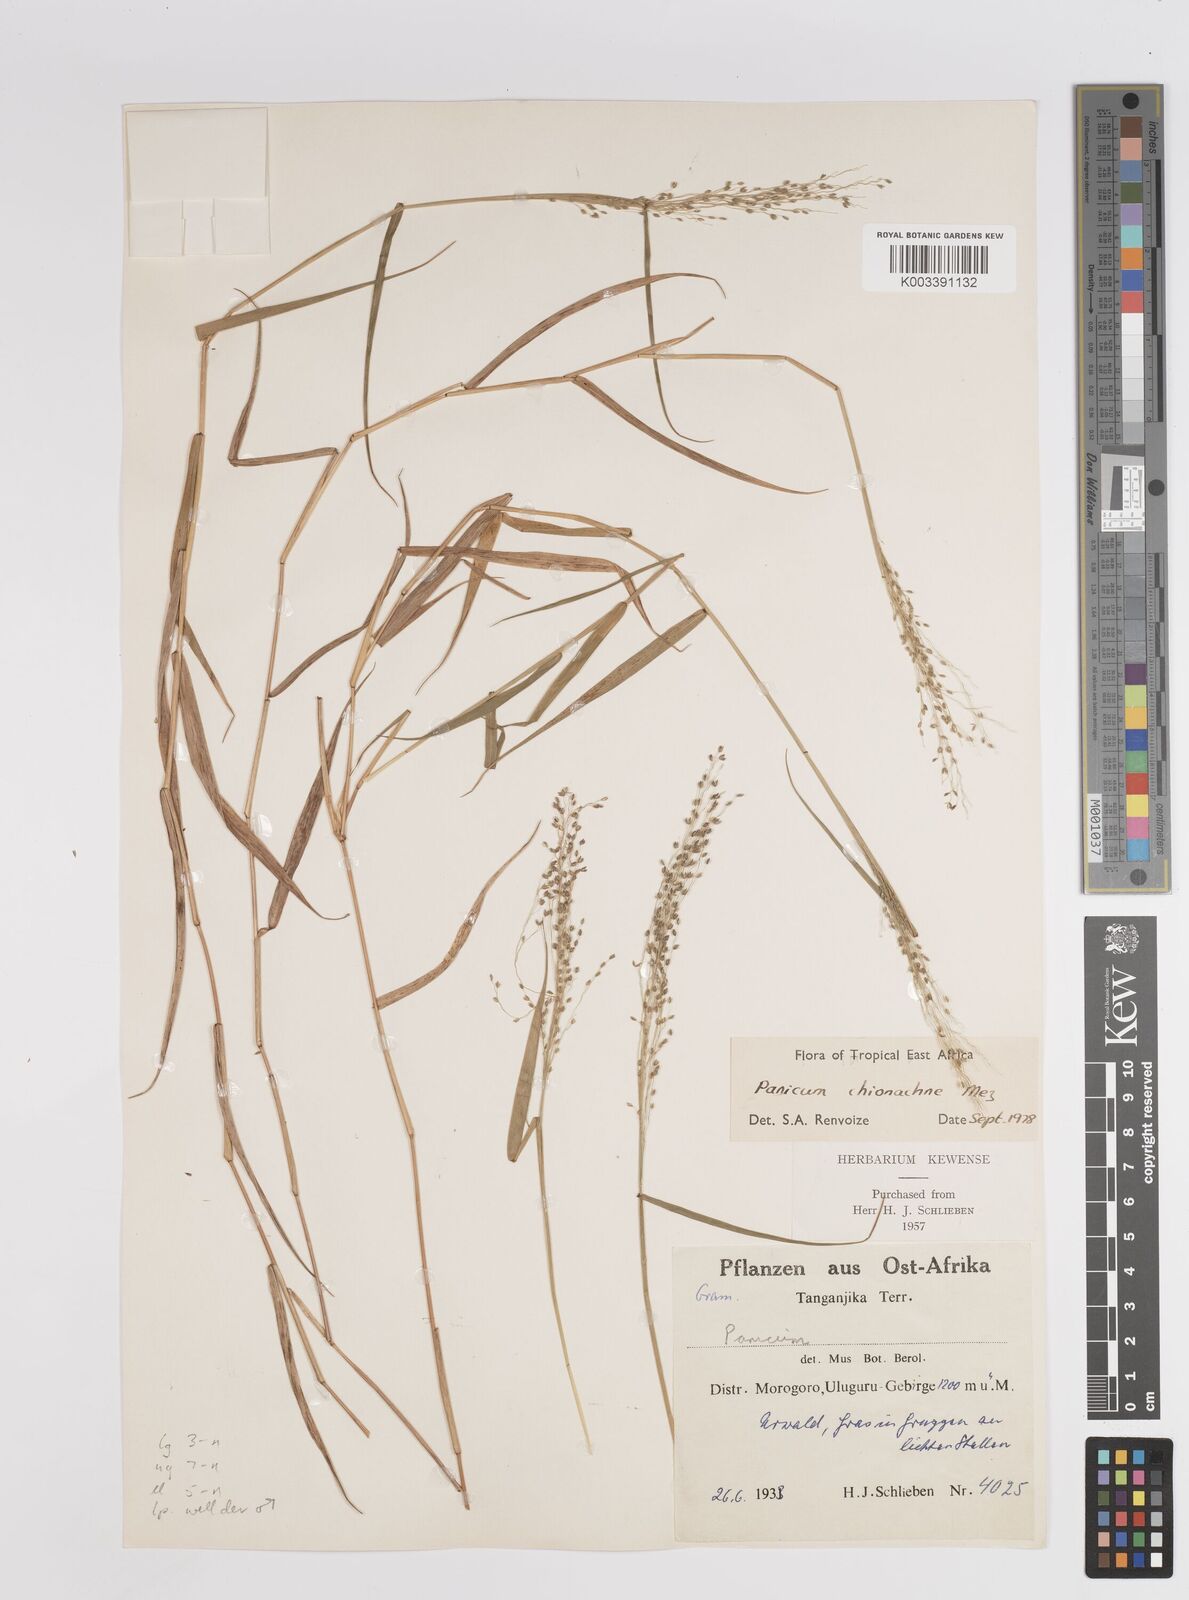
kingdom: Plantae
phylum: Tracheophyta
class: Liliopsida
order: Poales
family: Poaceae
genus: Panicum
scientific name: Panicum chionachne
